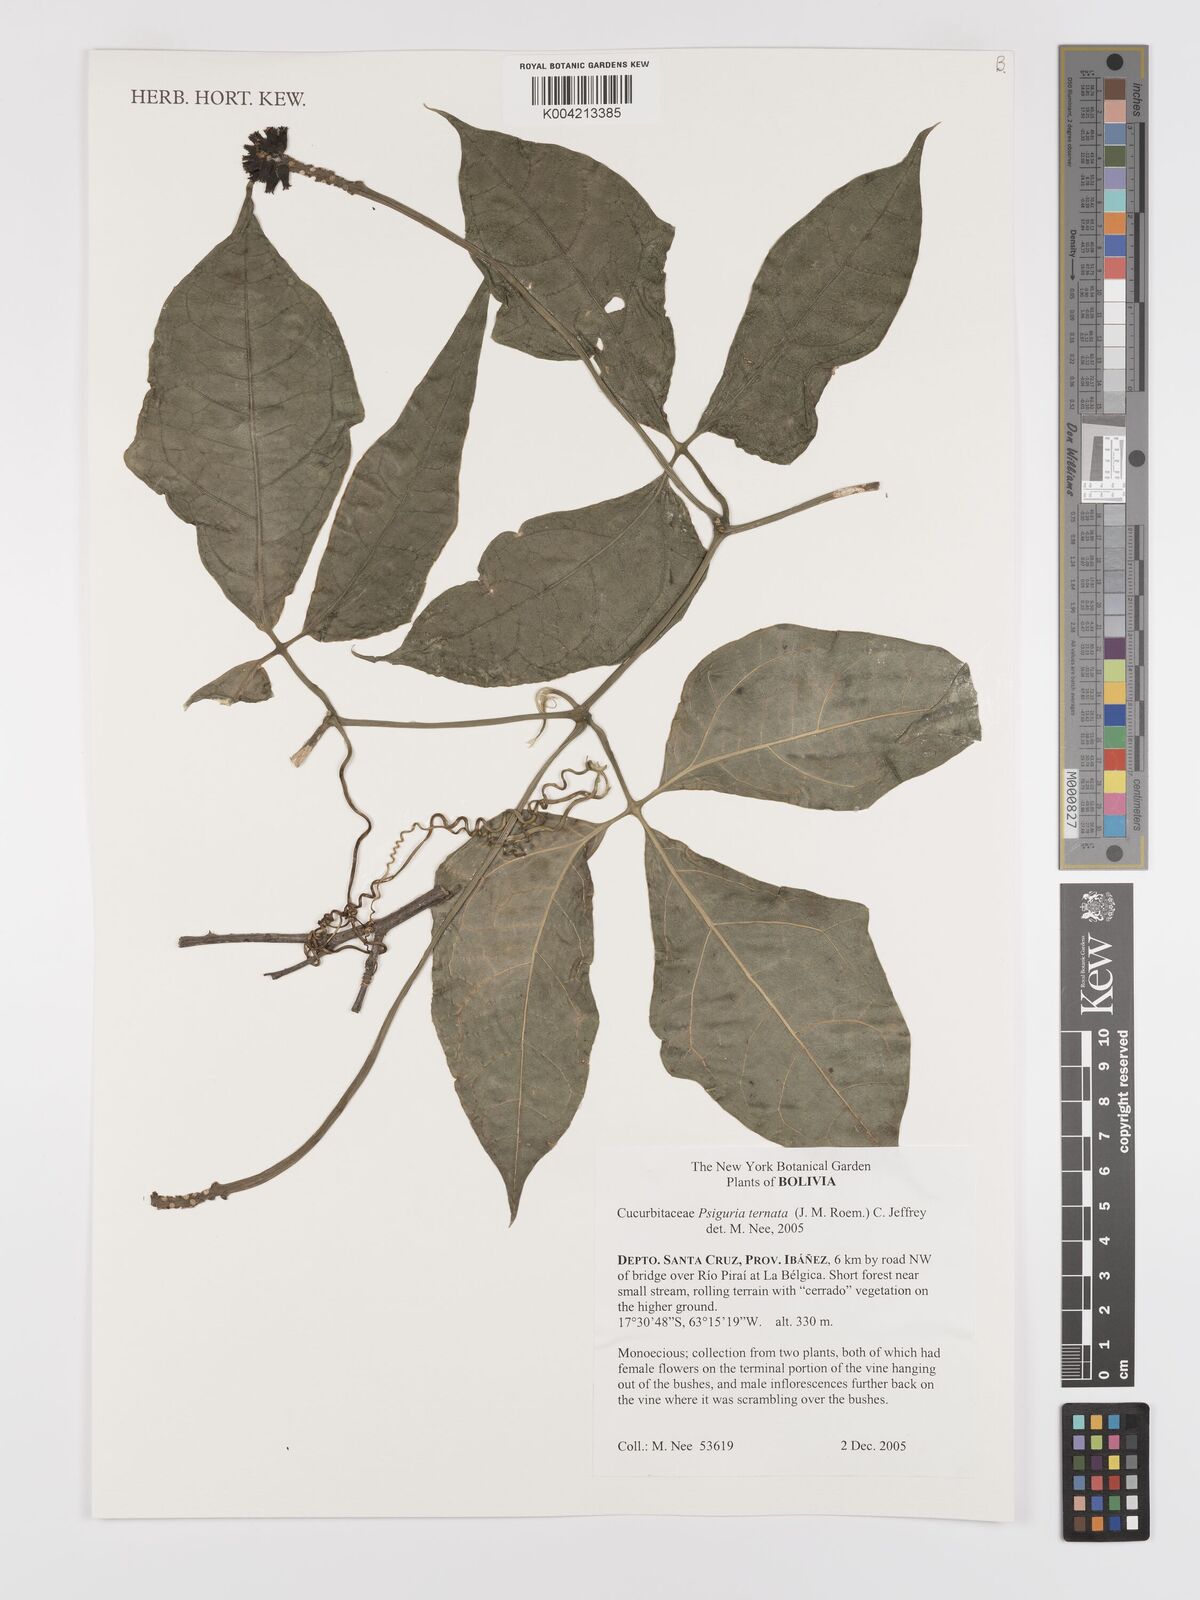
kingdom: Plantae
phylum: Tracheophyta
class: Magnoliopsida
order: Cucurbitales
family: Cucurbitaceae
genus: Psiguria
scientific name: Psiguria ternata
